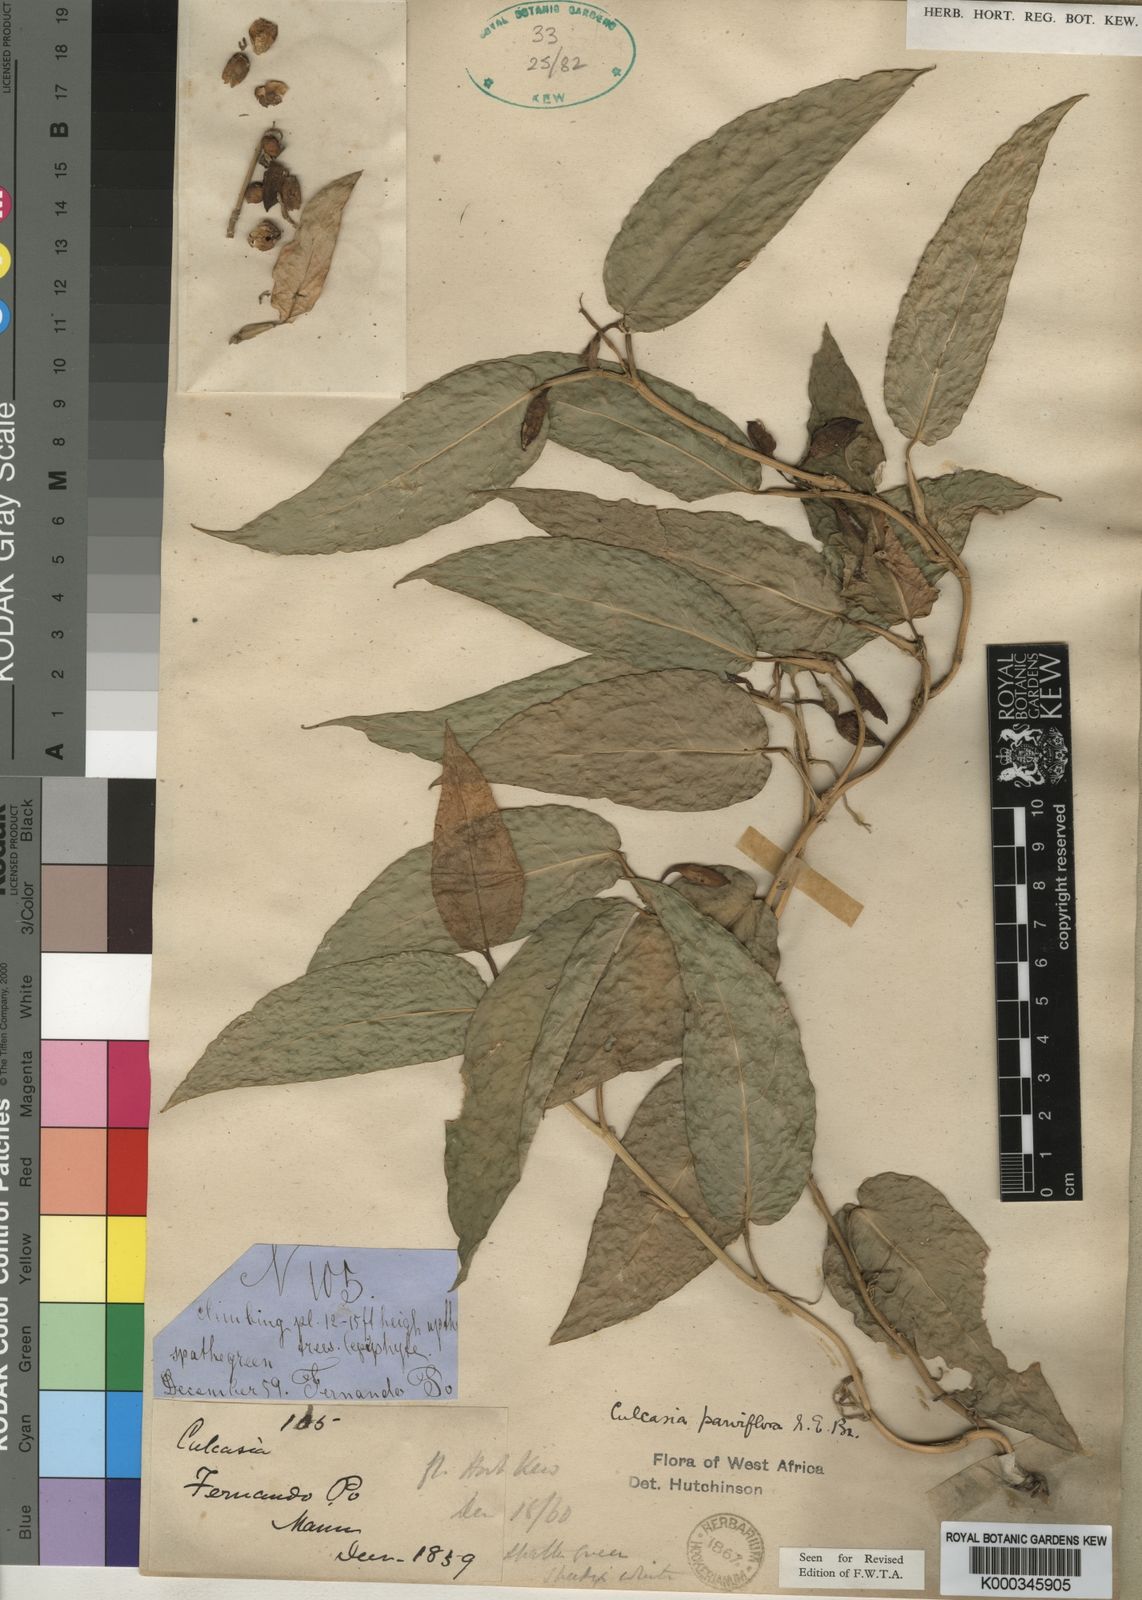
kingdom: Plantae
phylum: Tracheophyta
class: Liliopsida
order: Alismatales
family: Araceae
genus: Culcasia
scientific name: Culcasia parviflora
